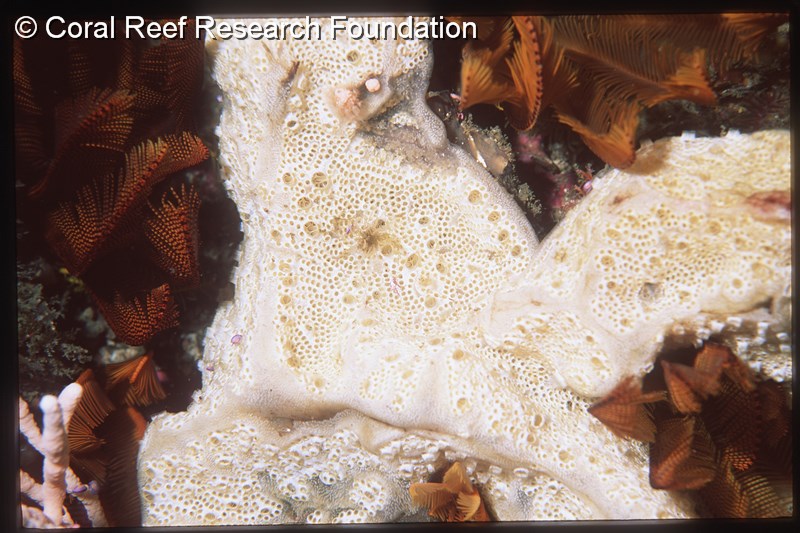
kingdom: Animalia
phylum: Chordata
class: Ascidiacea
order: Stolidobranchia
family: Styelidae
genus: Botryllus
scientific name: Botryllus
